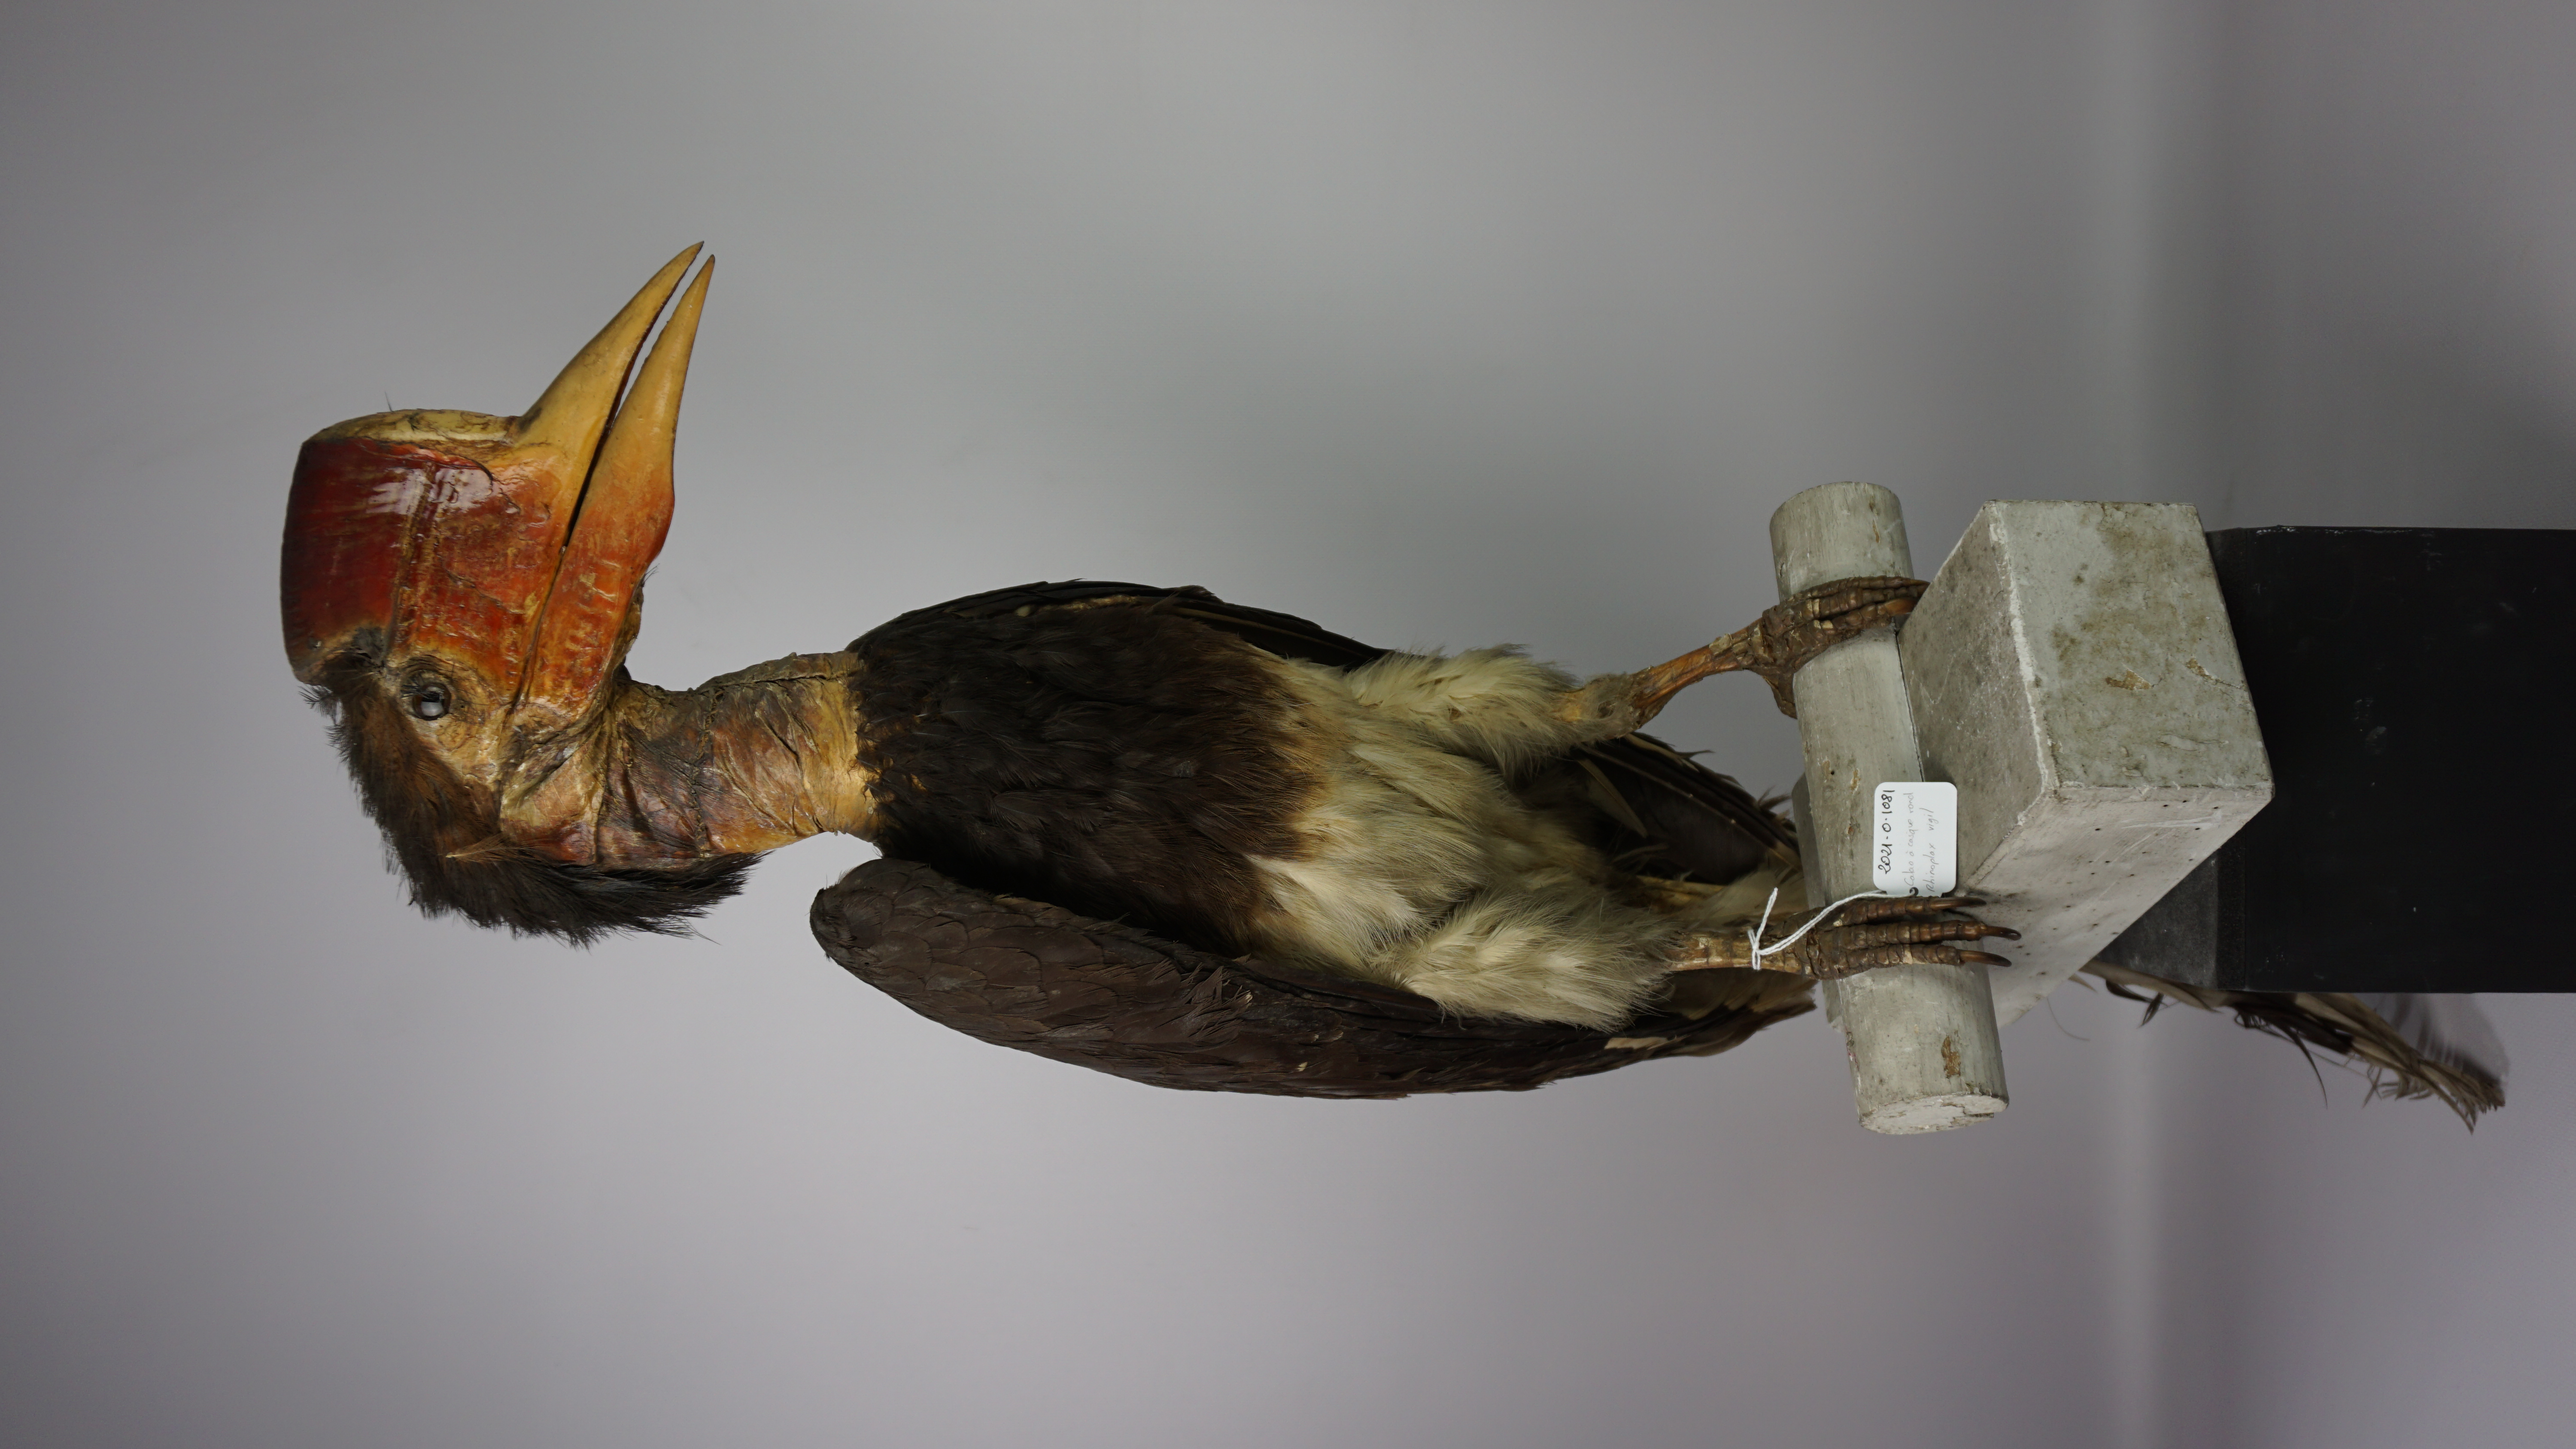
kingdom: Animalia
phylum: Chordata
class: Aves
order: Bucerotiformes
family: Bucerotidae
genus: Rhinoplax
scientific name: Rhinoplax vigil
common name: Helmeted hornbill
